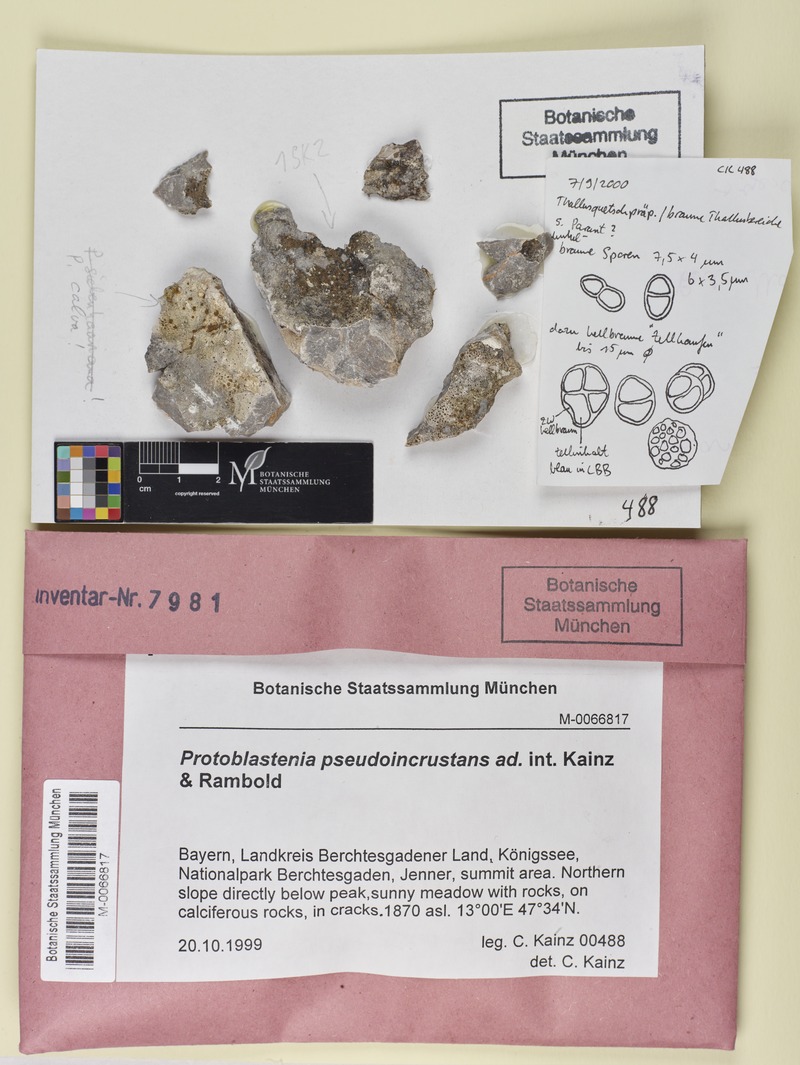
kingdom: Fungi
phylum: Ascomycota
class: Lecanoromycetes
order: Lecanorales
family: Psoraceae
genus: Protoblastenia
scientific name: Protoblastenia
